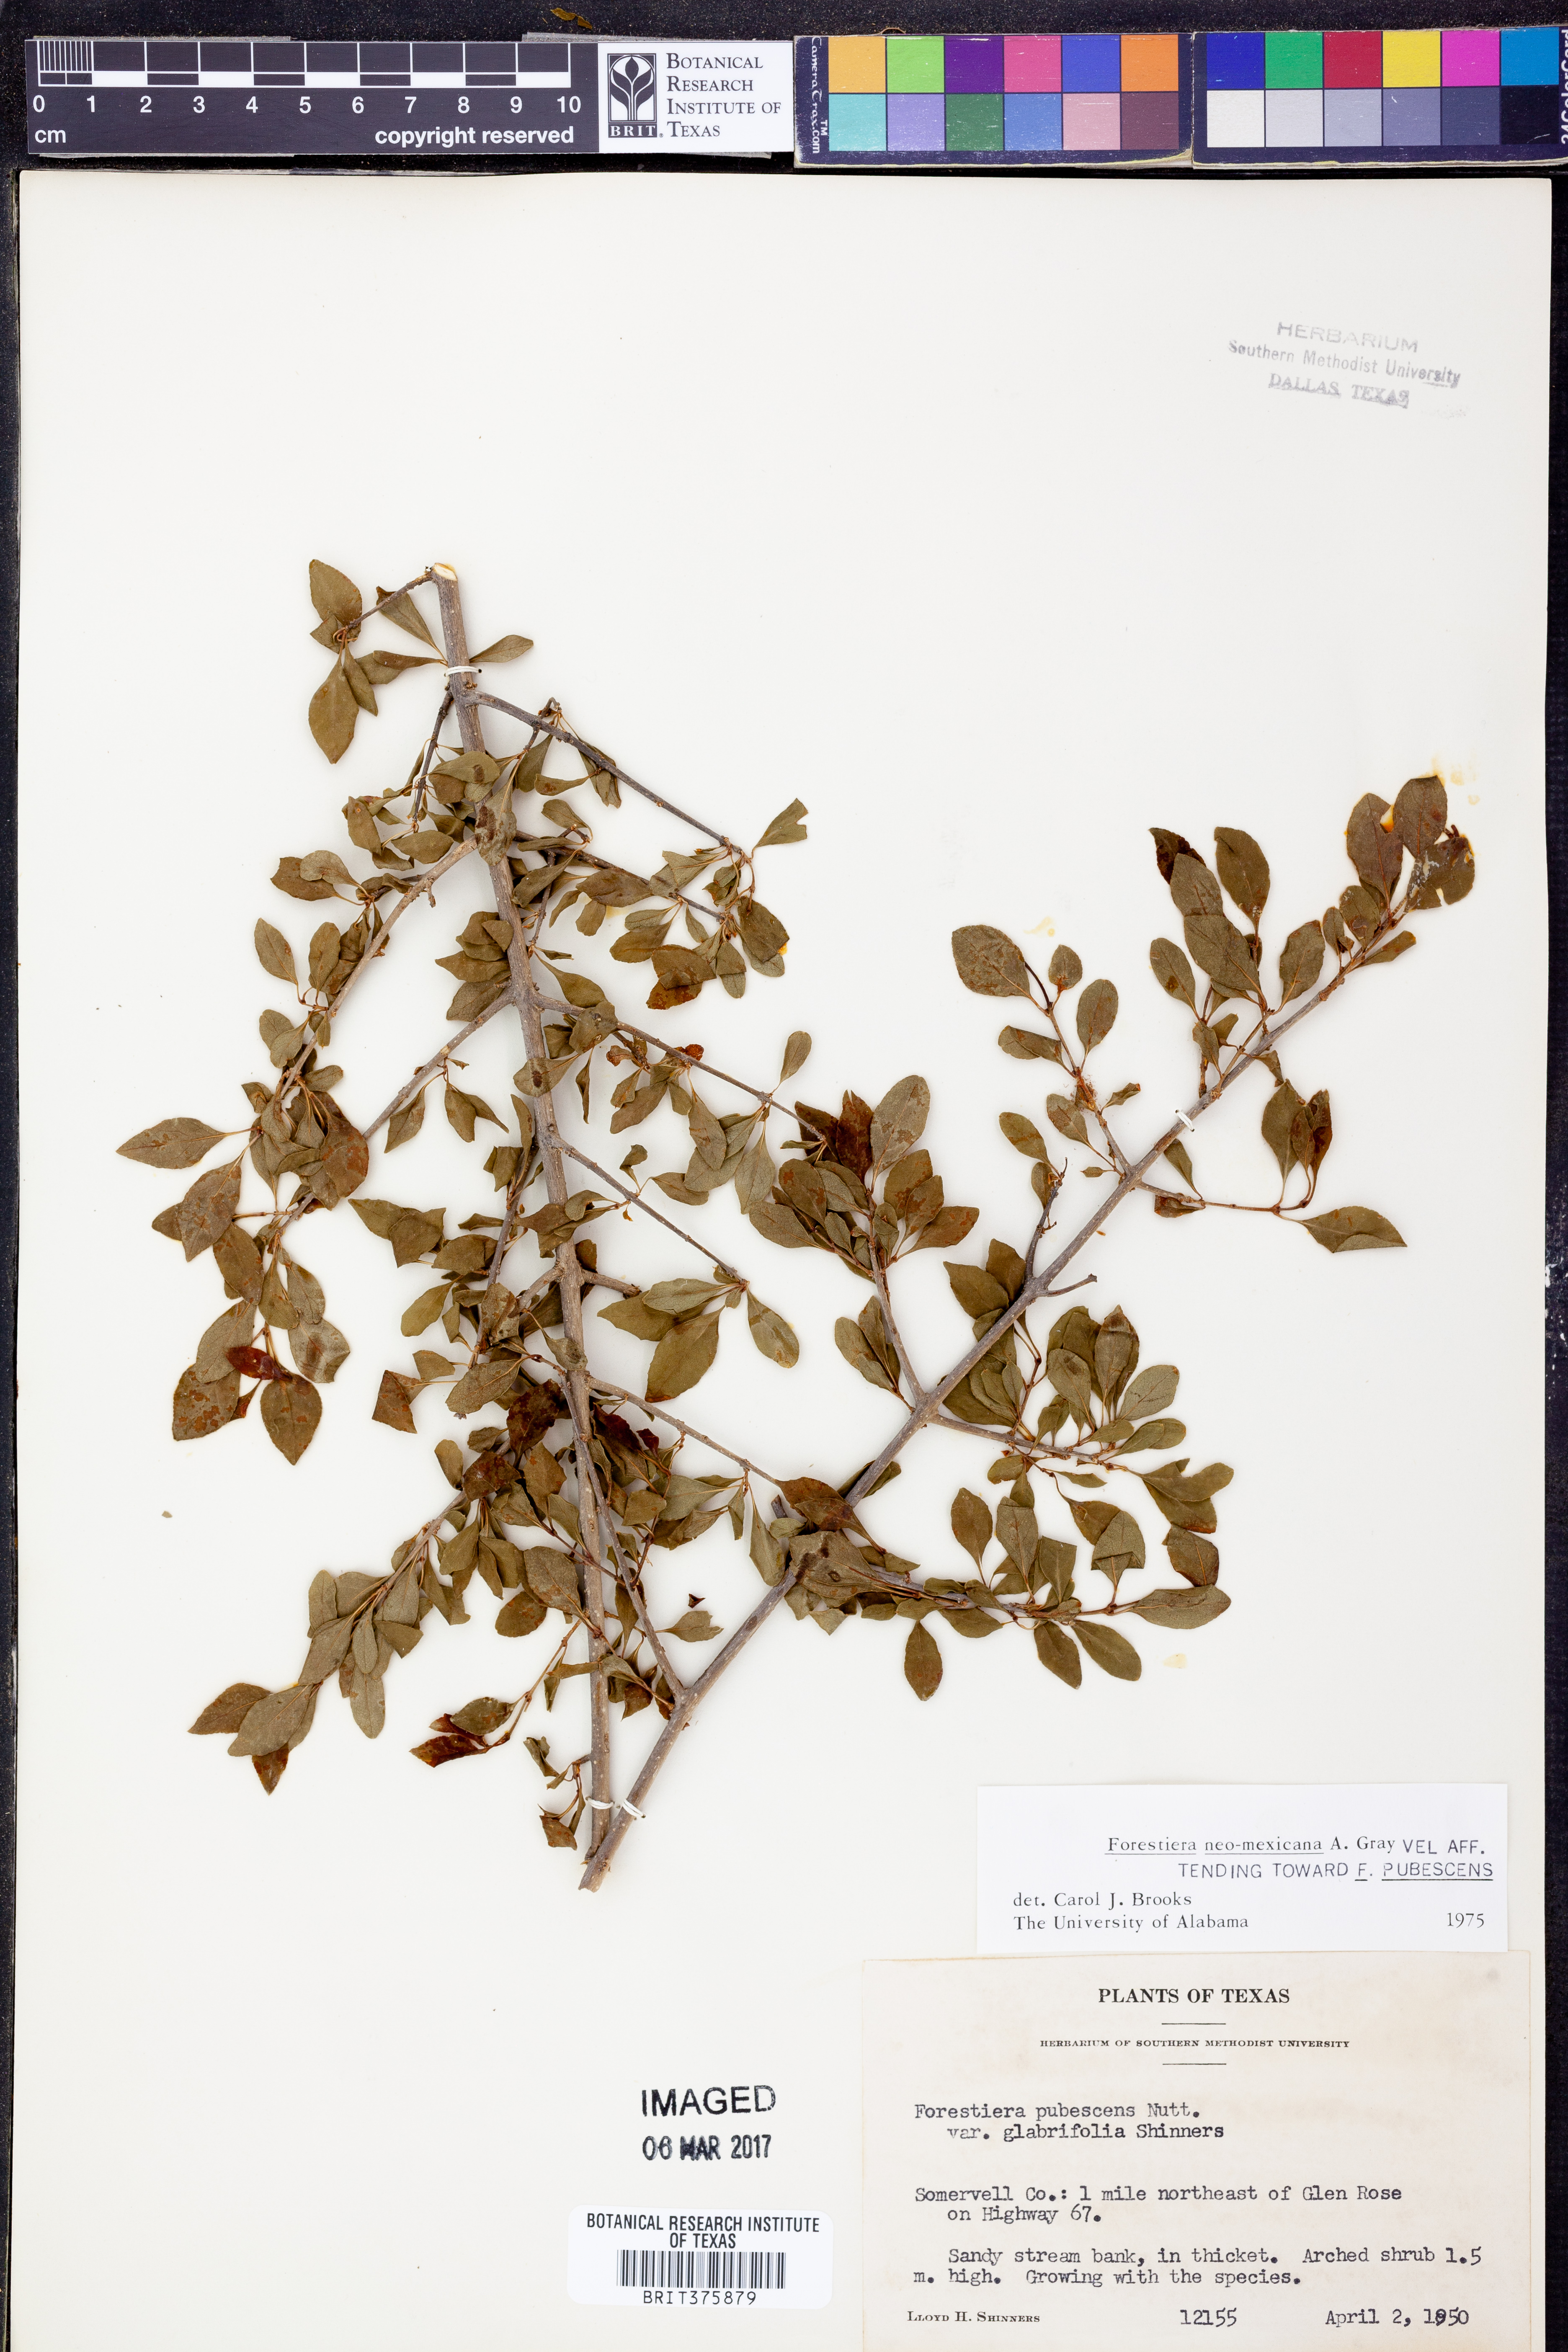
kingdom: Plantae
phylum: Tracheophyta
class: Magnoliopsida
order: Lamiales
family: Oleaceae
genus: Forestiera
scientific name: Forestiera pubescens
